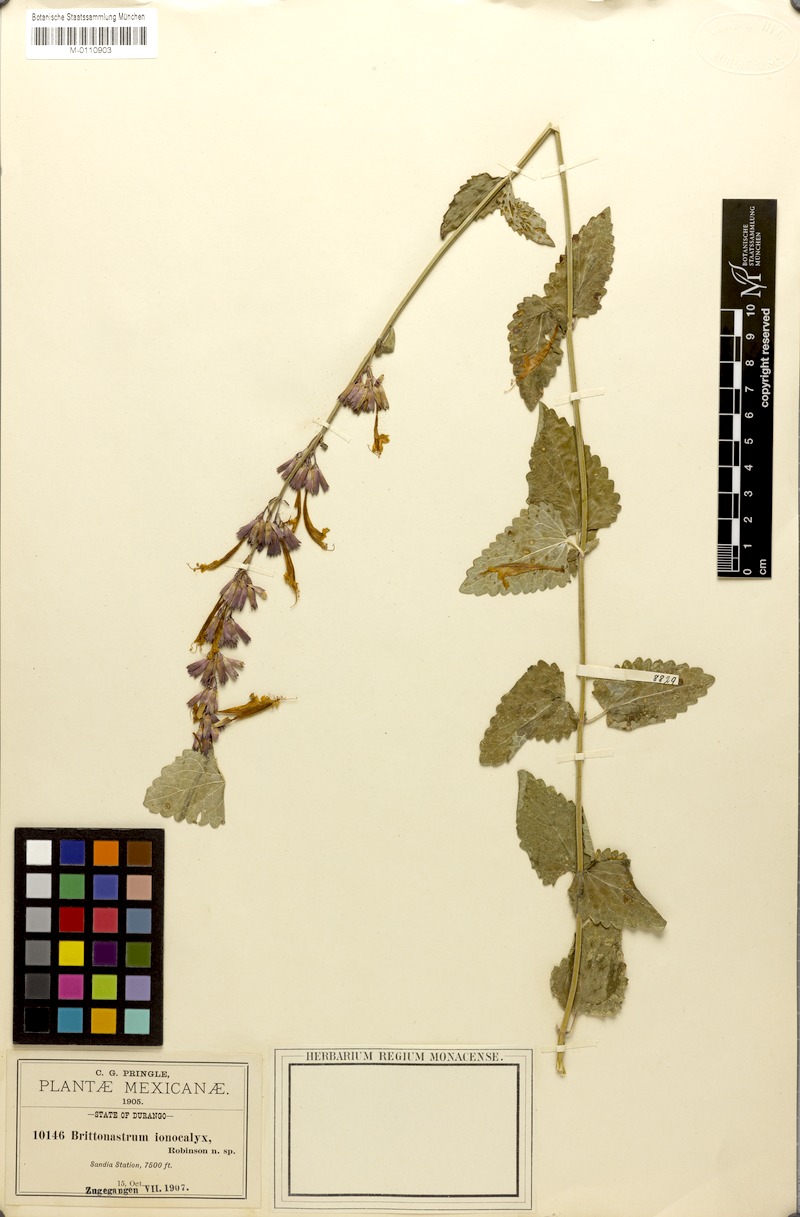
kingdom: Plantae
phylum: Tracheophyta
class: Magnoliopsida
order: Lamiales
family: Lamiaceae
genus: Agastache
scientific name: Agastache pallida
